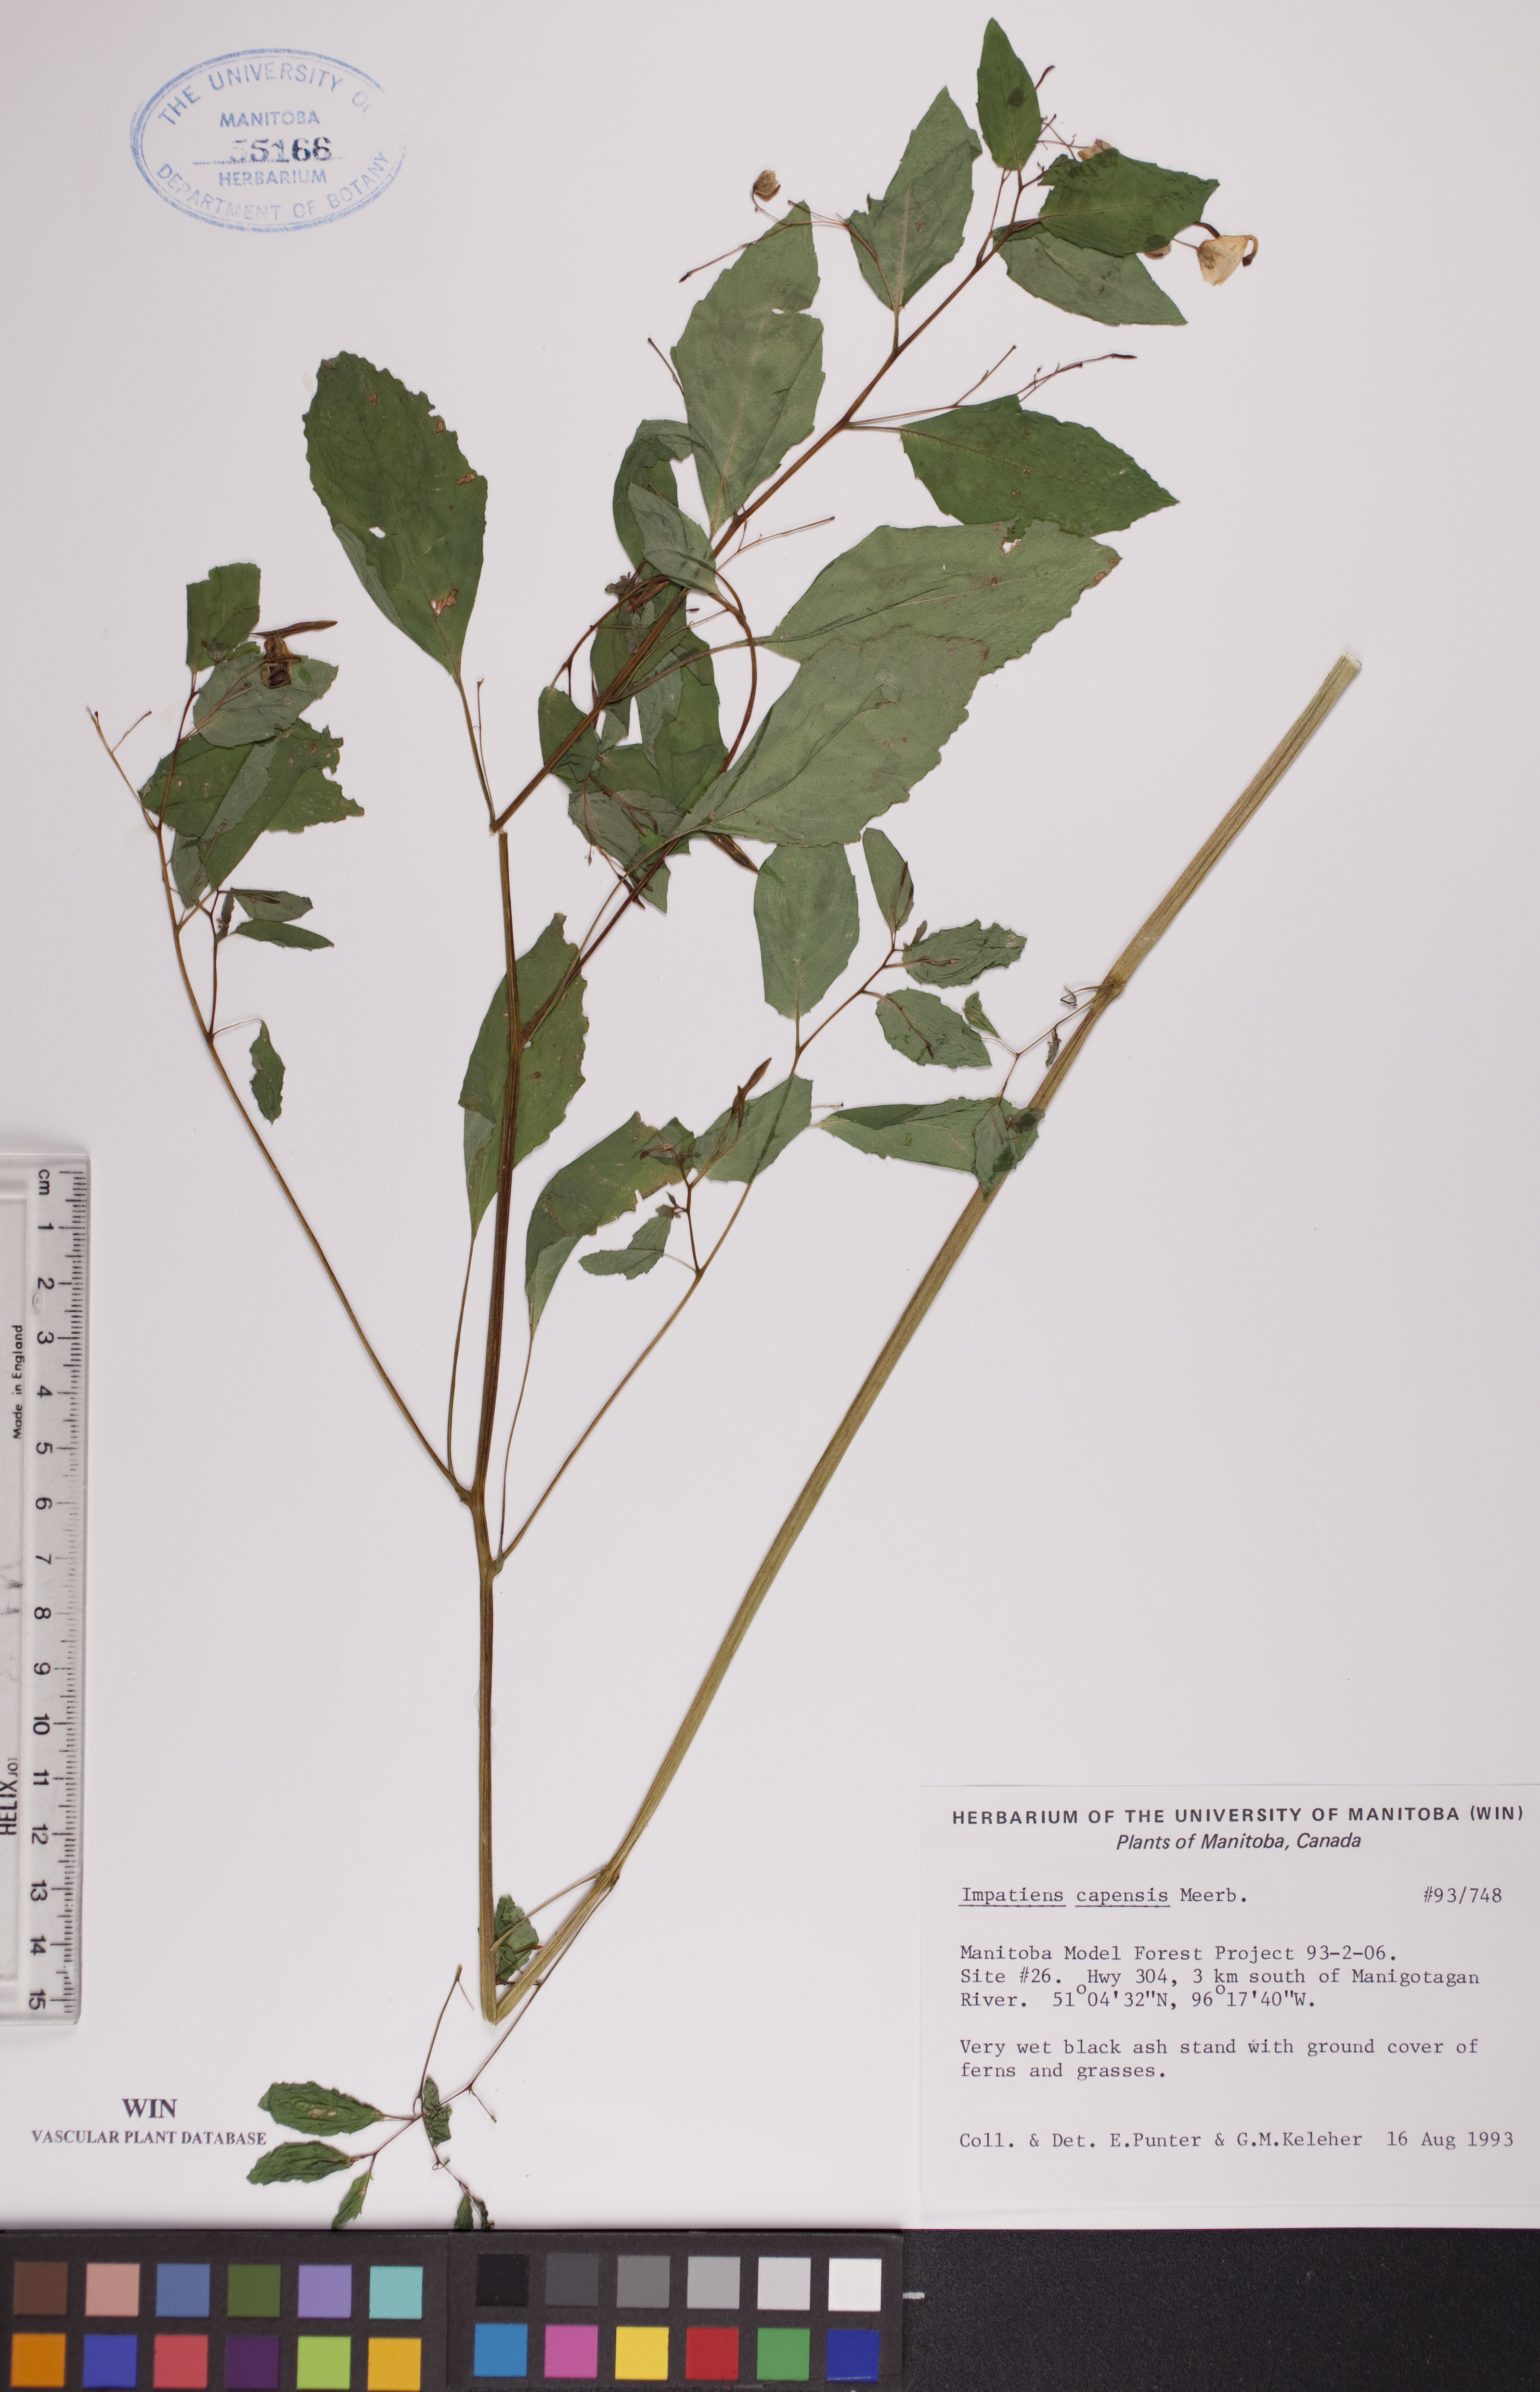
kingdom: Plantae
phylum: Tracheophyta
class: Magnoliopsida
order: Ericales
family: Balsaminaceae
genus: Impatiens
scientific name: Impatiens capensis
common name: Orange balsam
